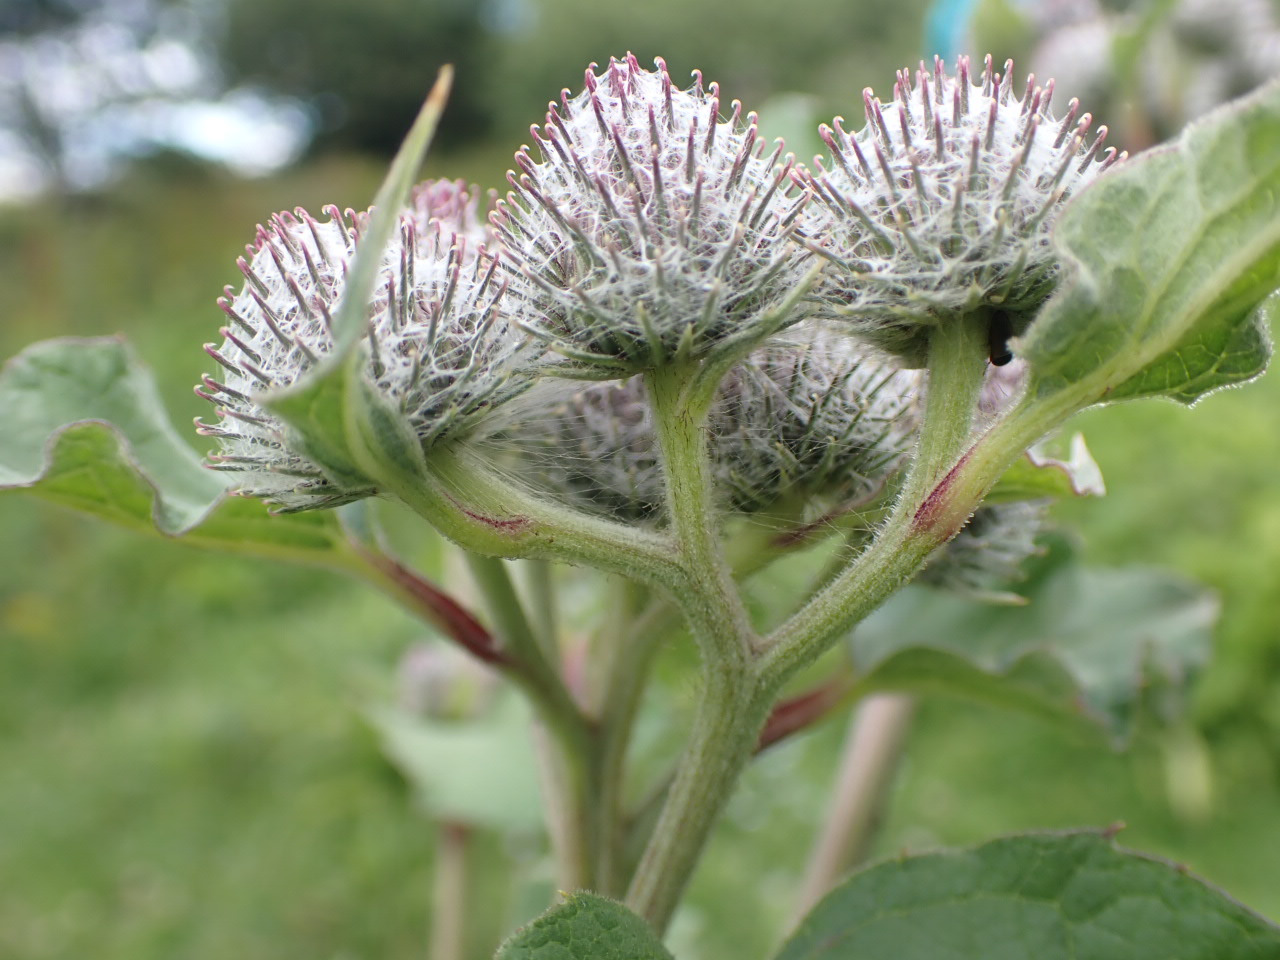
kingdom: Plantae
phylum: Tracheophyta
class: Magnoliopsida
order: Asterales
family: Asteraceae
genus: Arctium
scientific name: Arctium tomentosum
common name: Filtet burre
